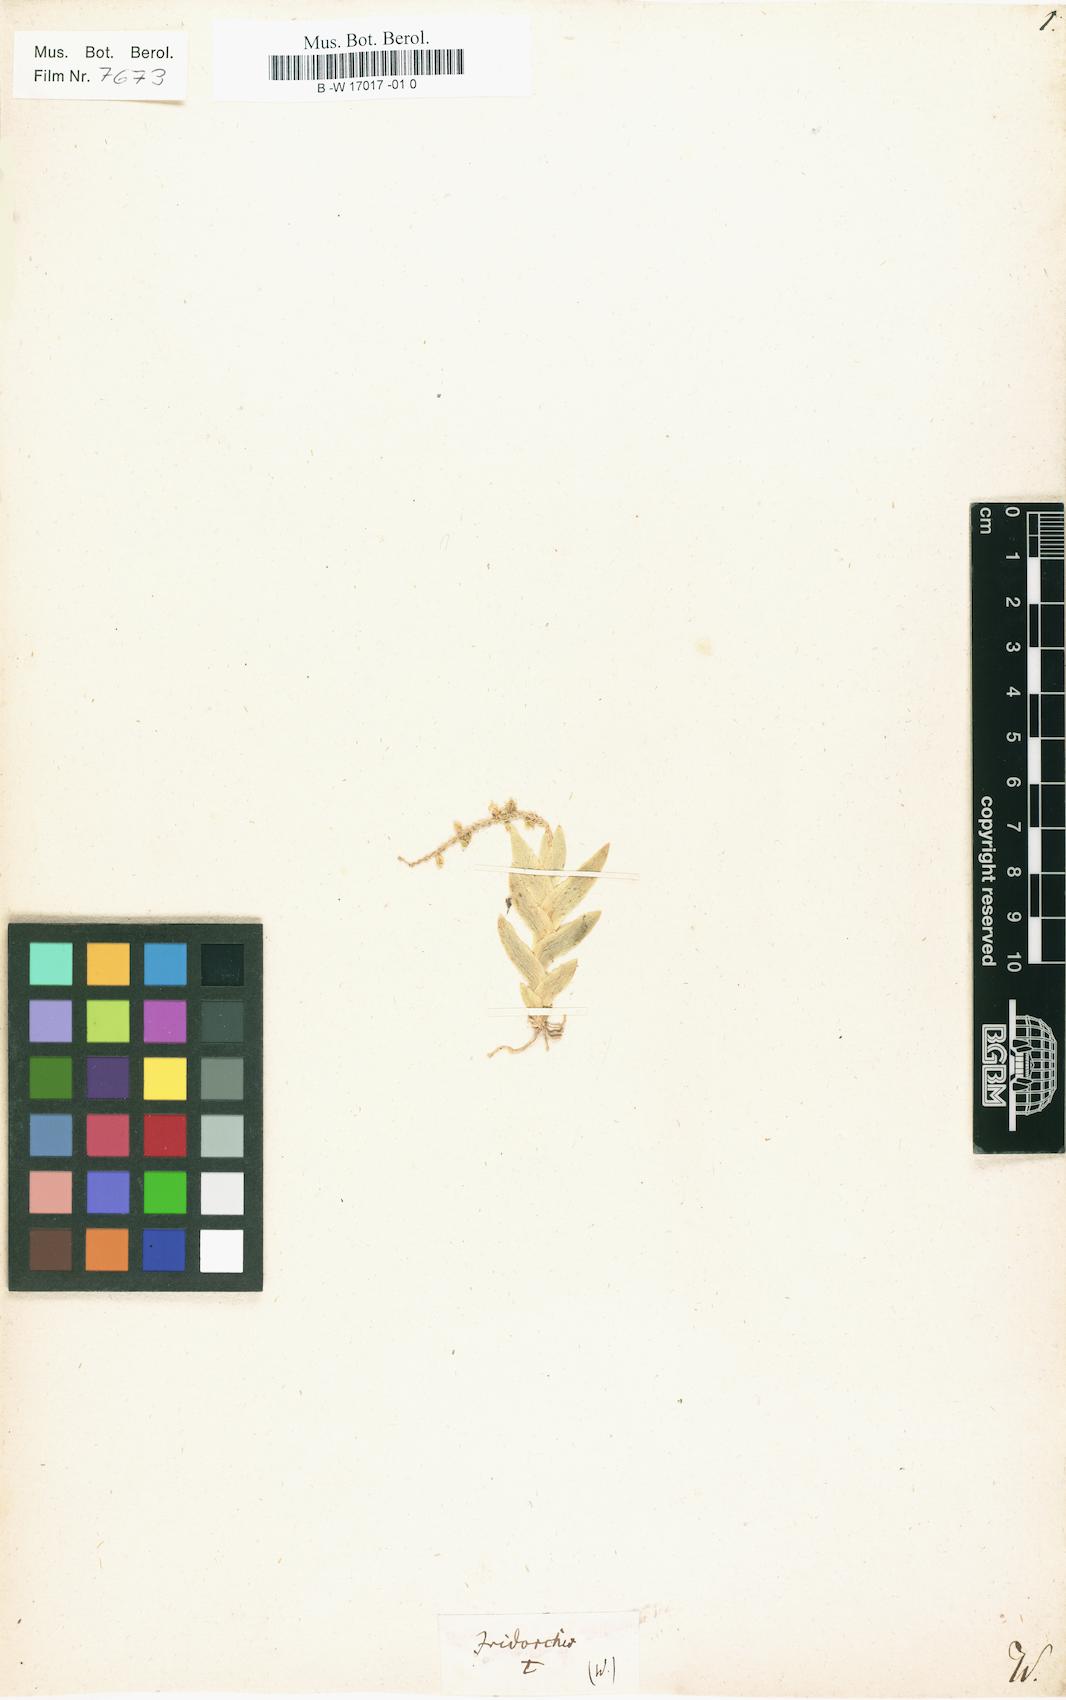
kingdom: Plantae
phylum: Tracheophyta
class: Liliopsida
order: Asparagales
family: Orchidaceae
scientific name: Orchidaceae
